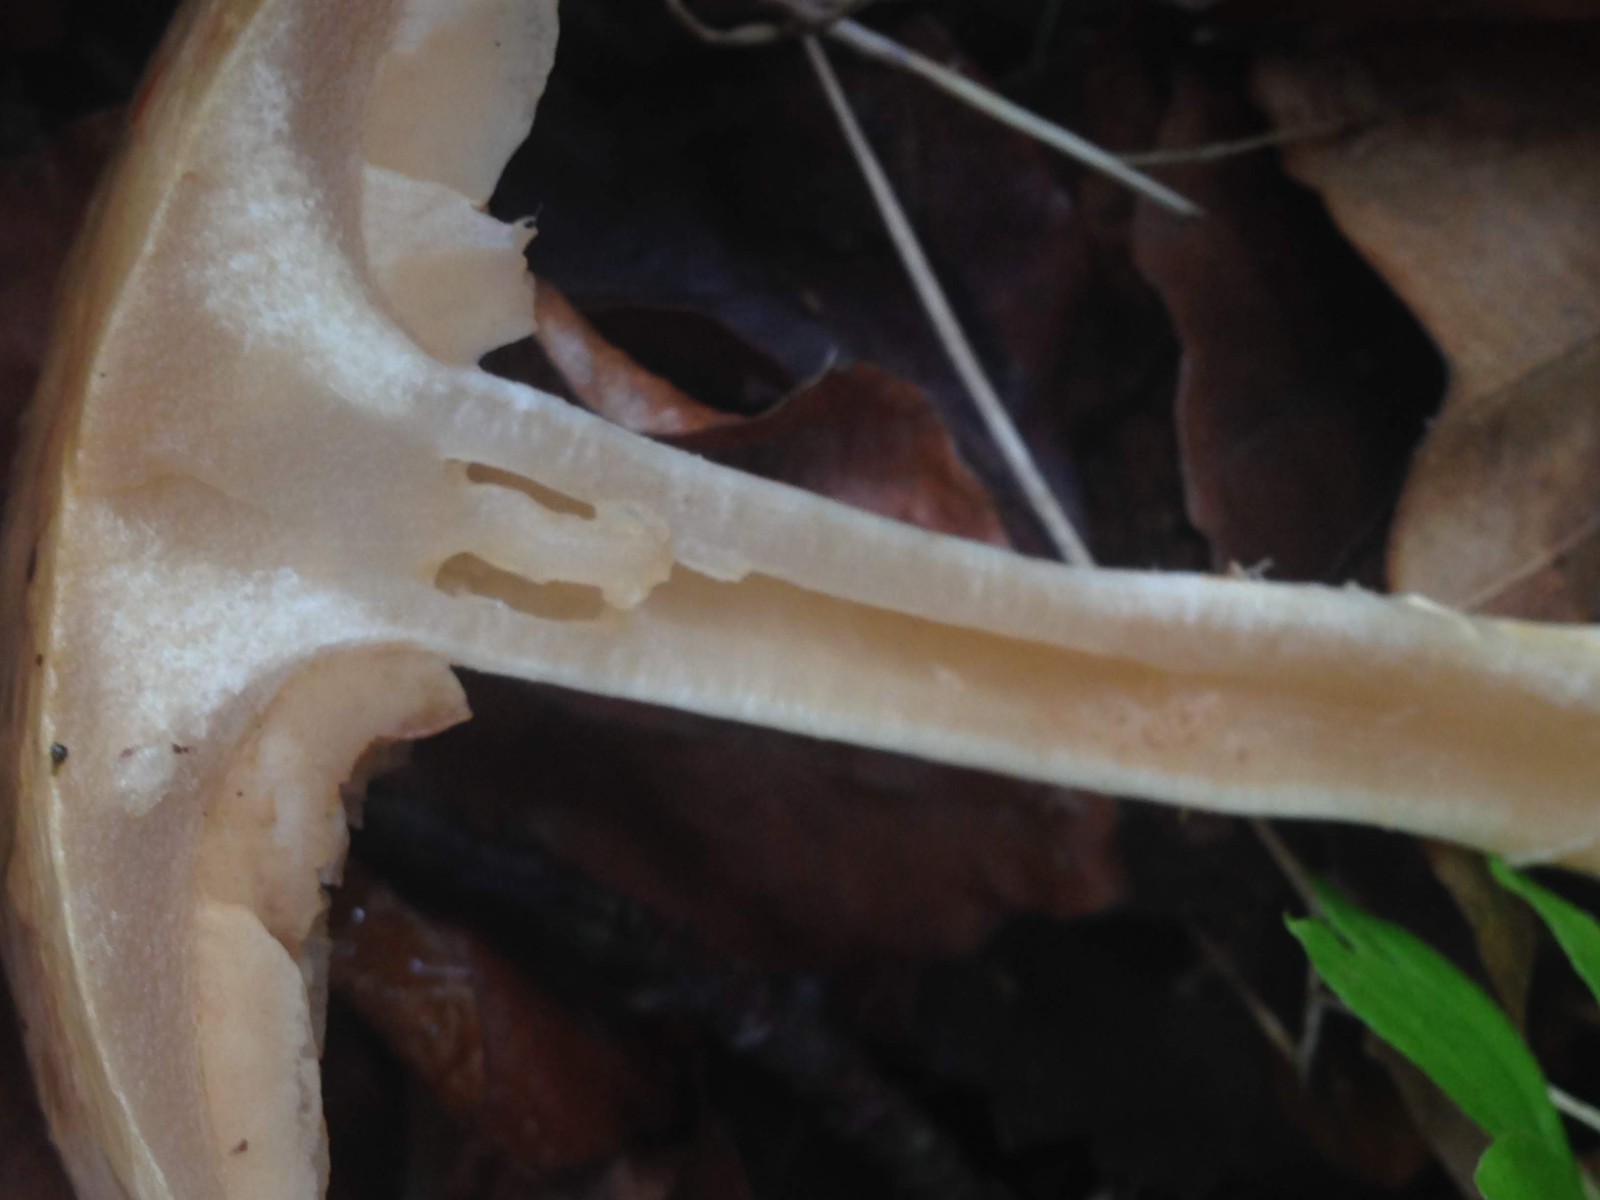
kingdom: Fungi
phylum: Basidiomycota
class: Agaricomycetes
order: Agaricales
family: Cortinariaceae
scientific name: Cortinariaceae
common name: slørhatfamilien
